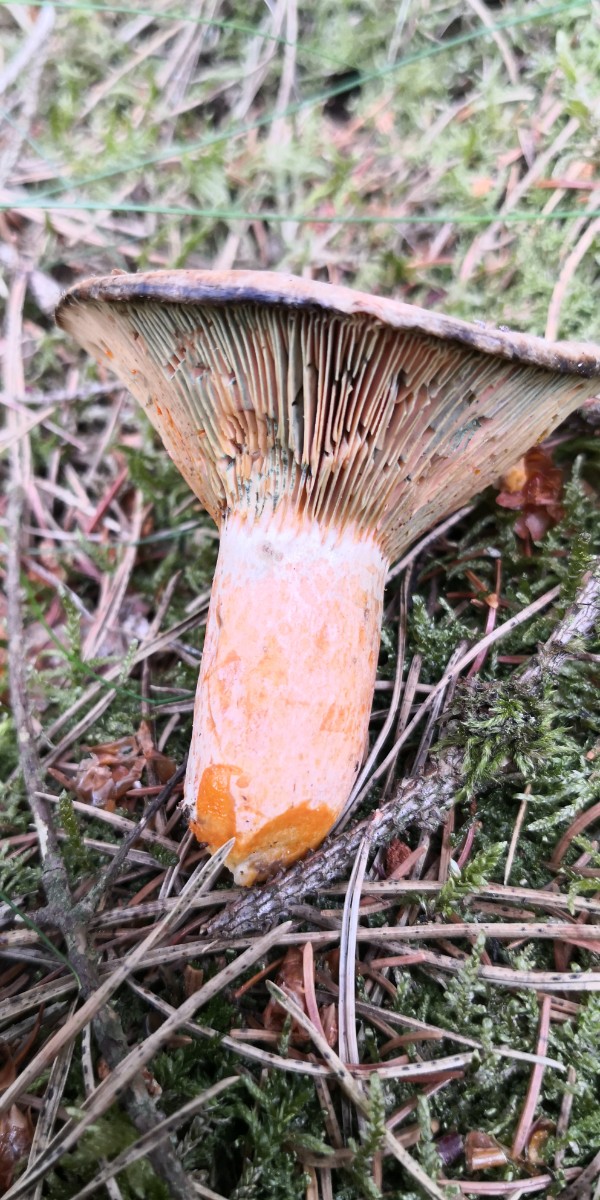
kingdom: Fungi
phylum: Basidiomycota
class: Agaricomycetes
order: Russulales
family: Russulaceae
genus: Lactarius
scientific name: Lactarius deliciosus
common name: velsmagende mælkehat
